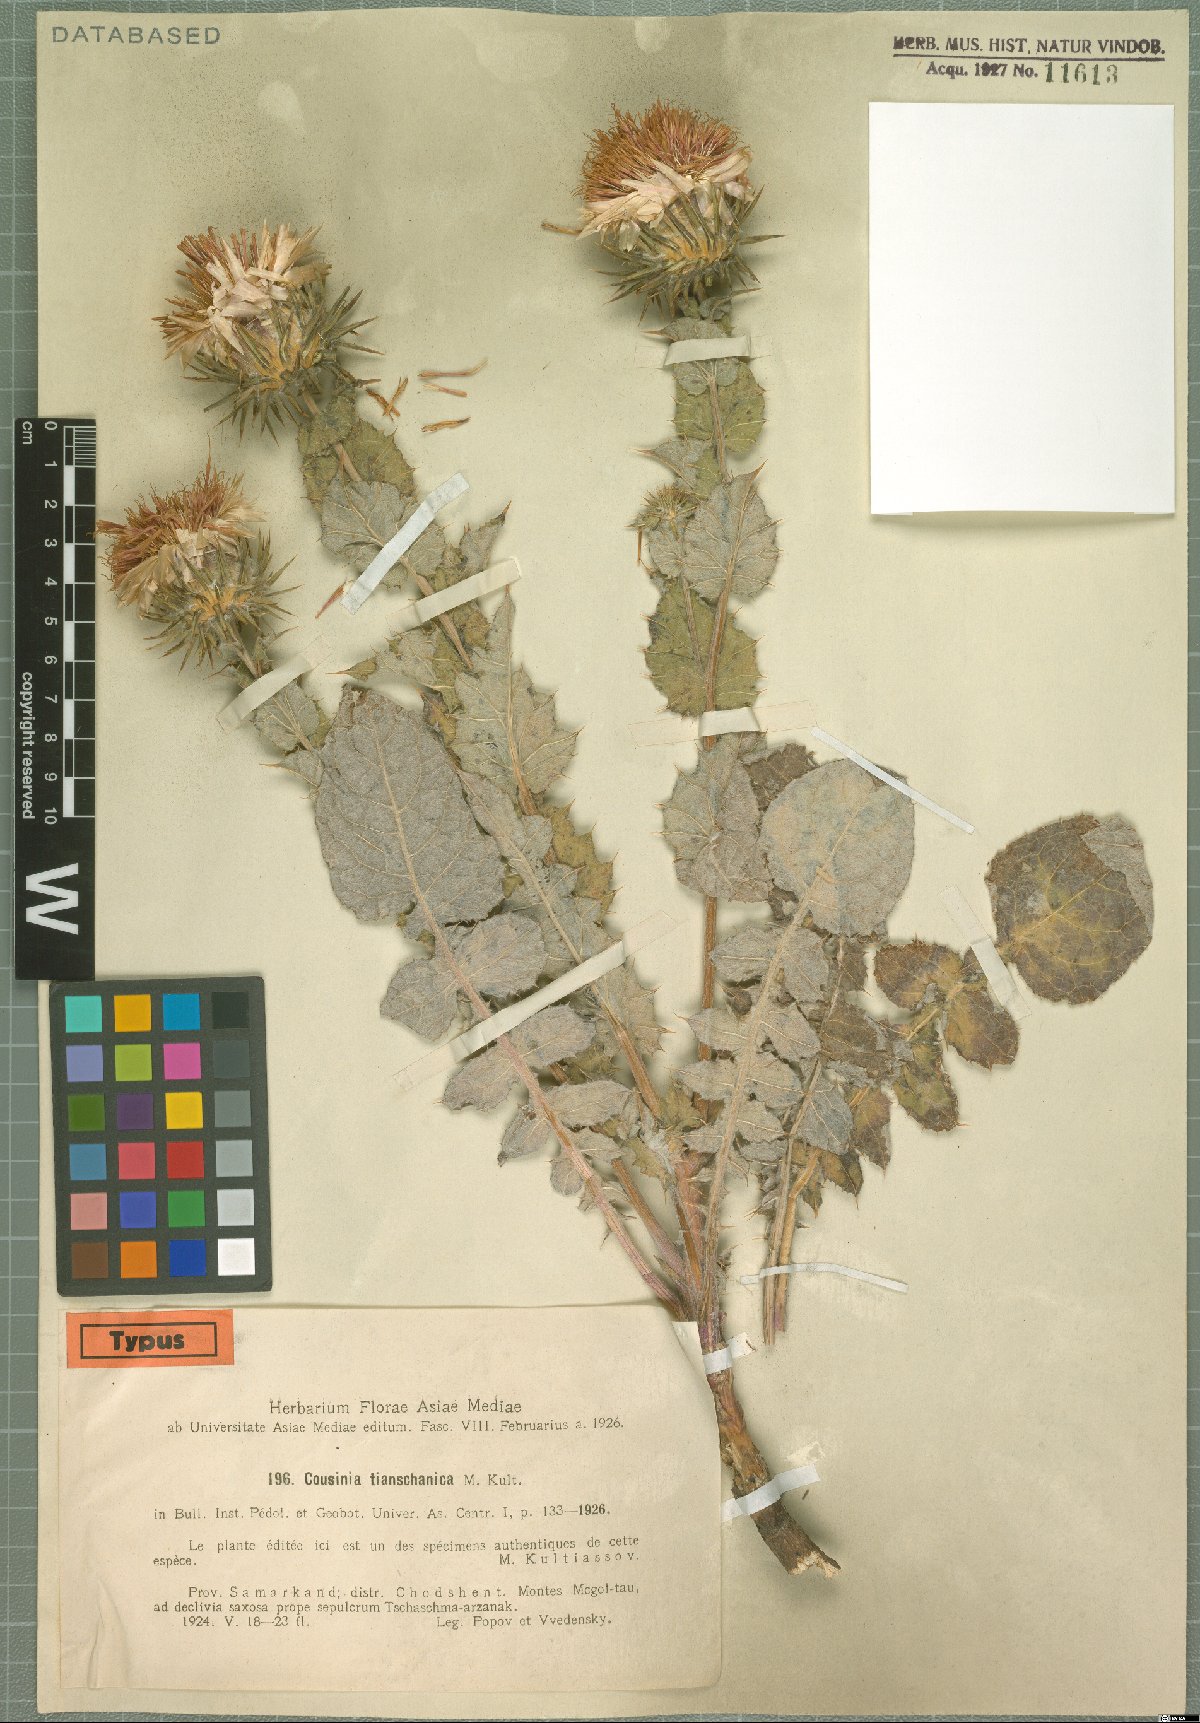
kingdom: Plantae
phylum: Tracheophyta
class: Magnoliopsida
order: Asterales
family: Asteraceae
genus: Cousinia
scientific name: Cousinia tianschanica
